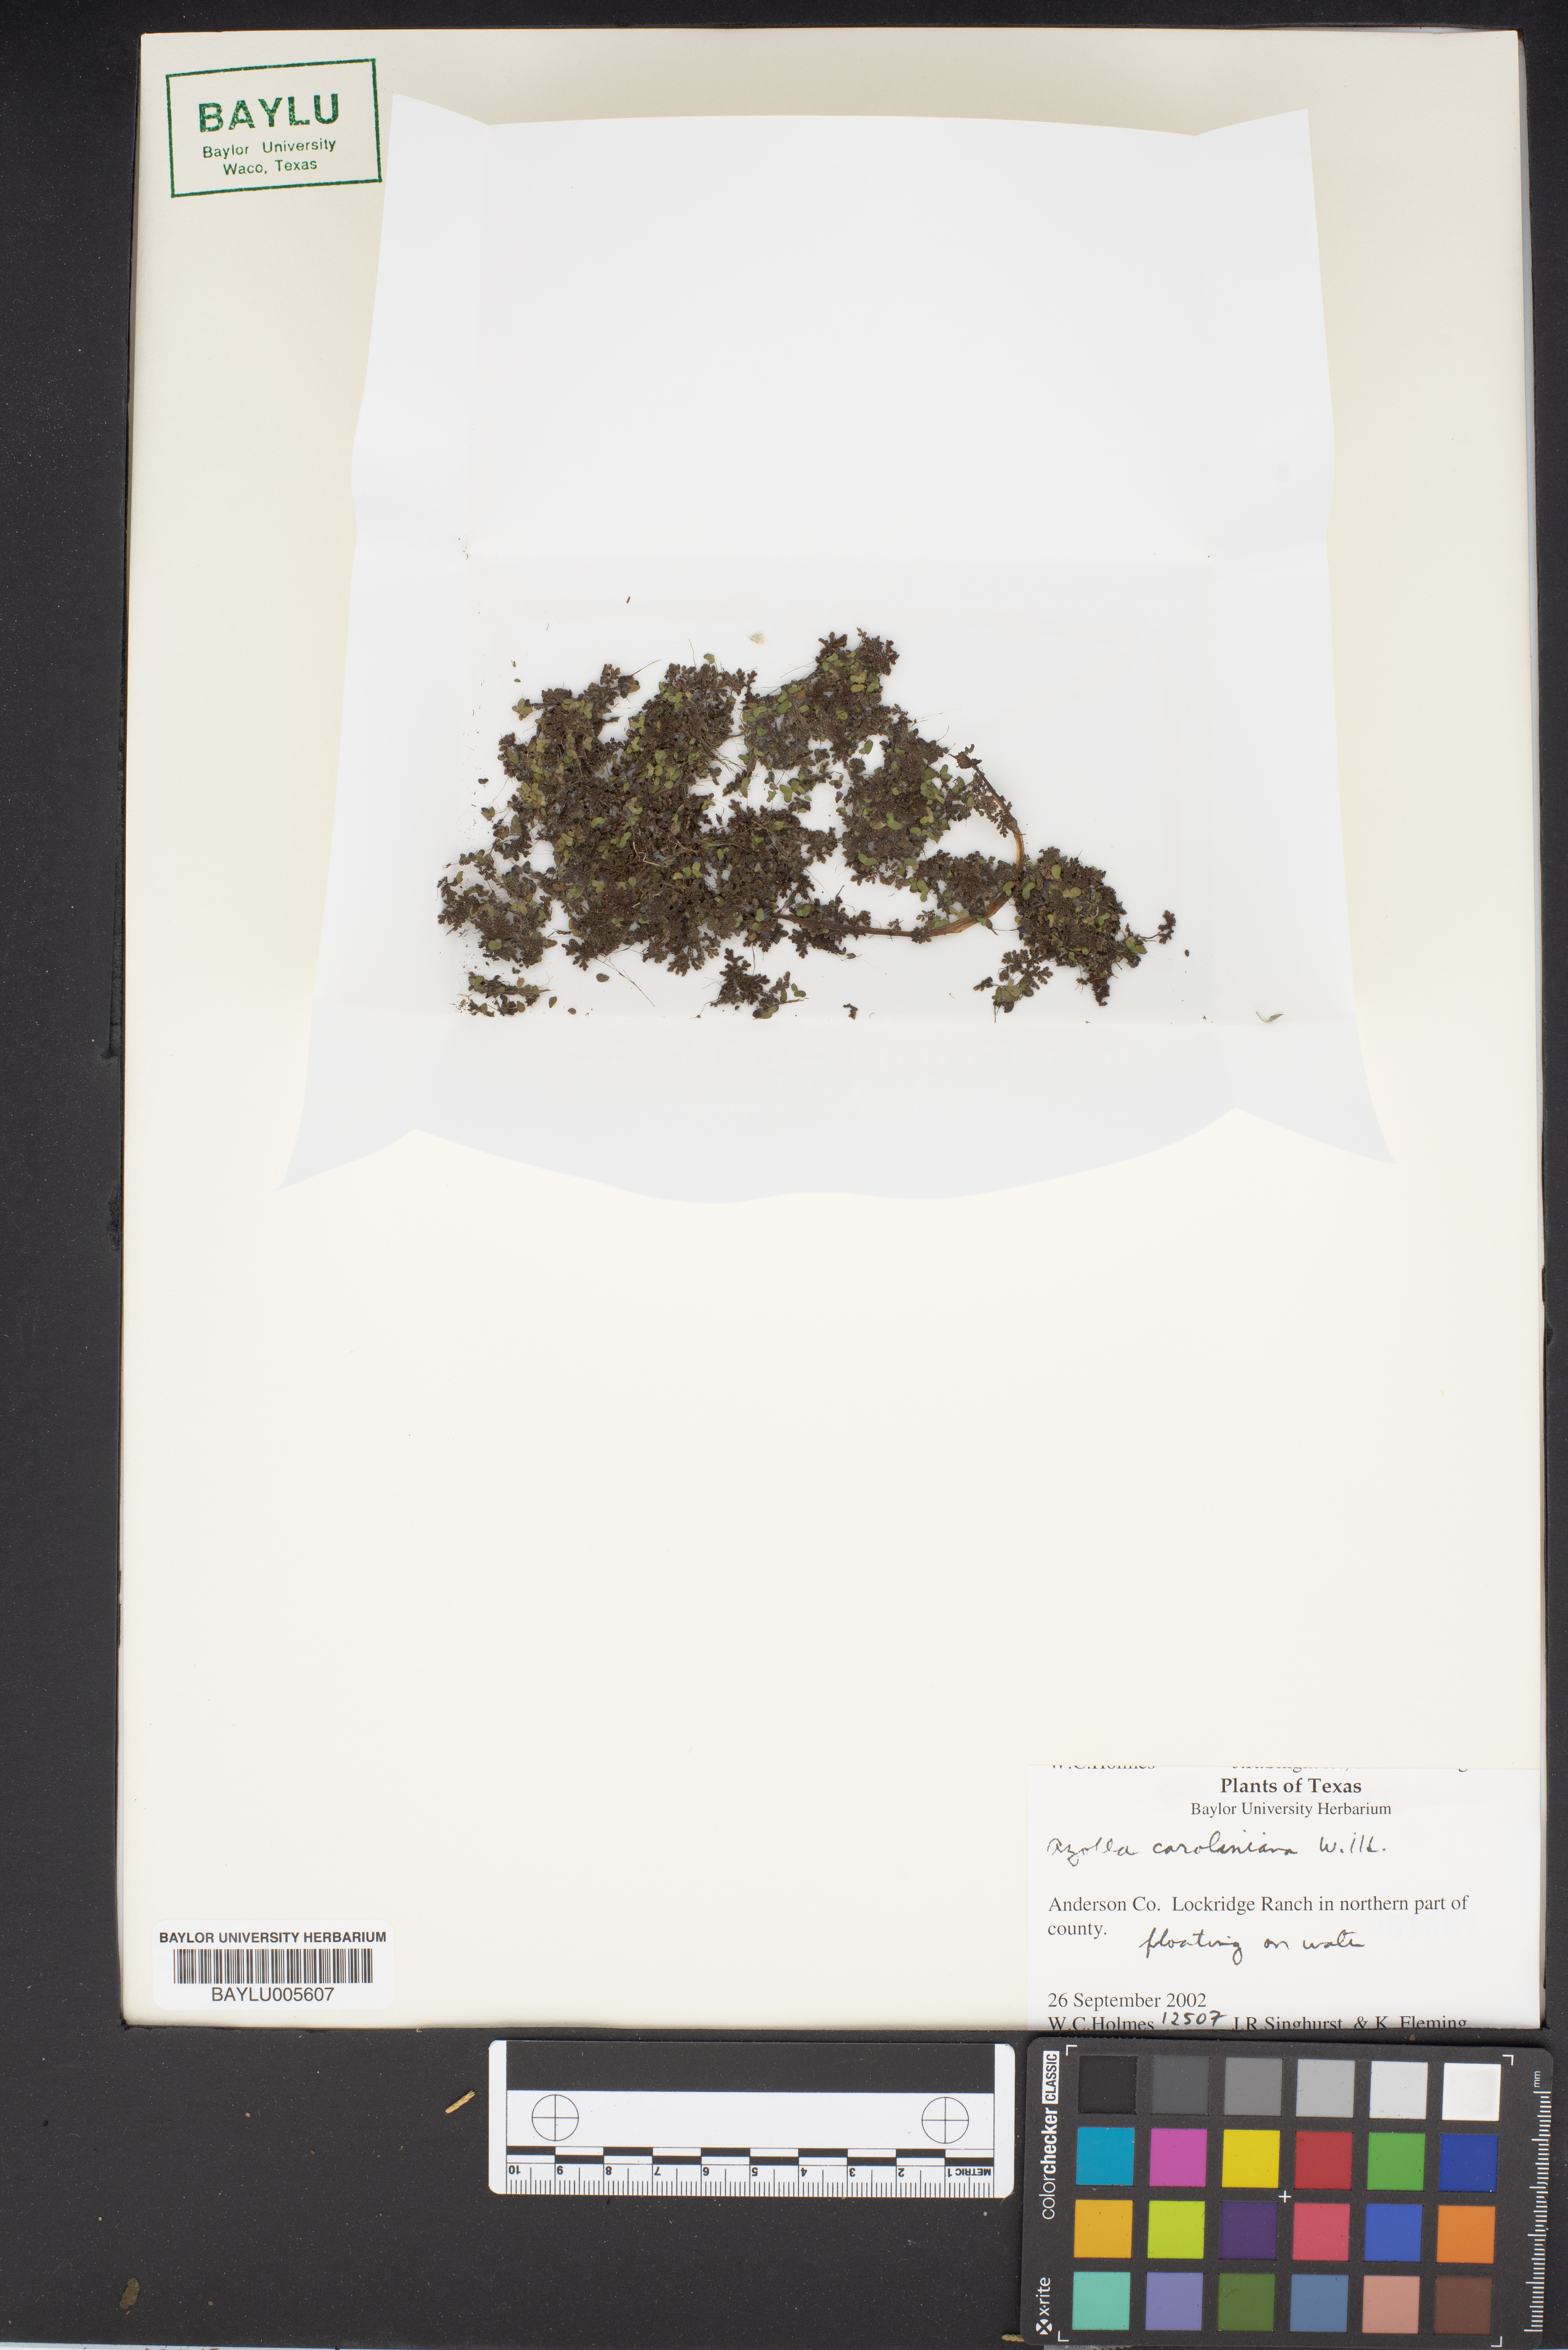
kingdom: Plantae
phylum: Tracheophyta
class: Polypodiopsida
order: Salviniales
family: Salviniaceae
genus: Azolla
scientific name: Azolla caroliniana
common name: Carolina mosquitofern
